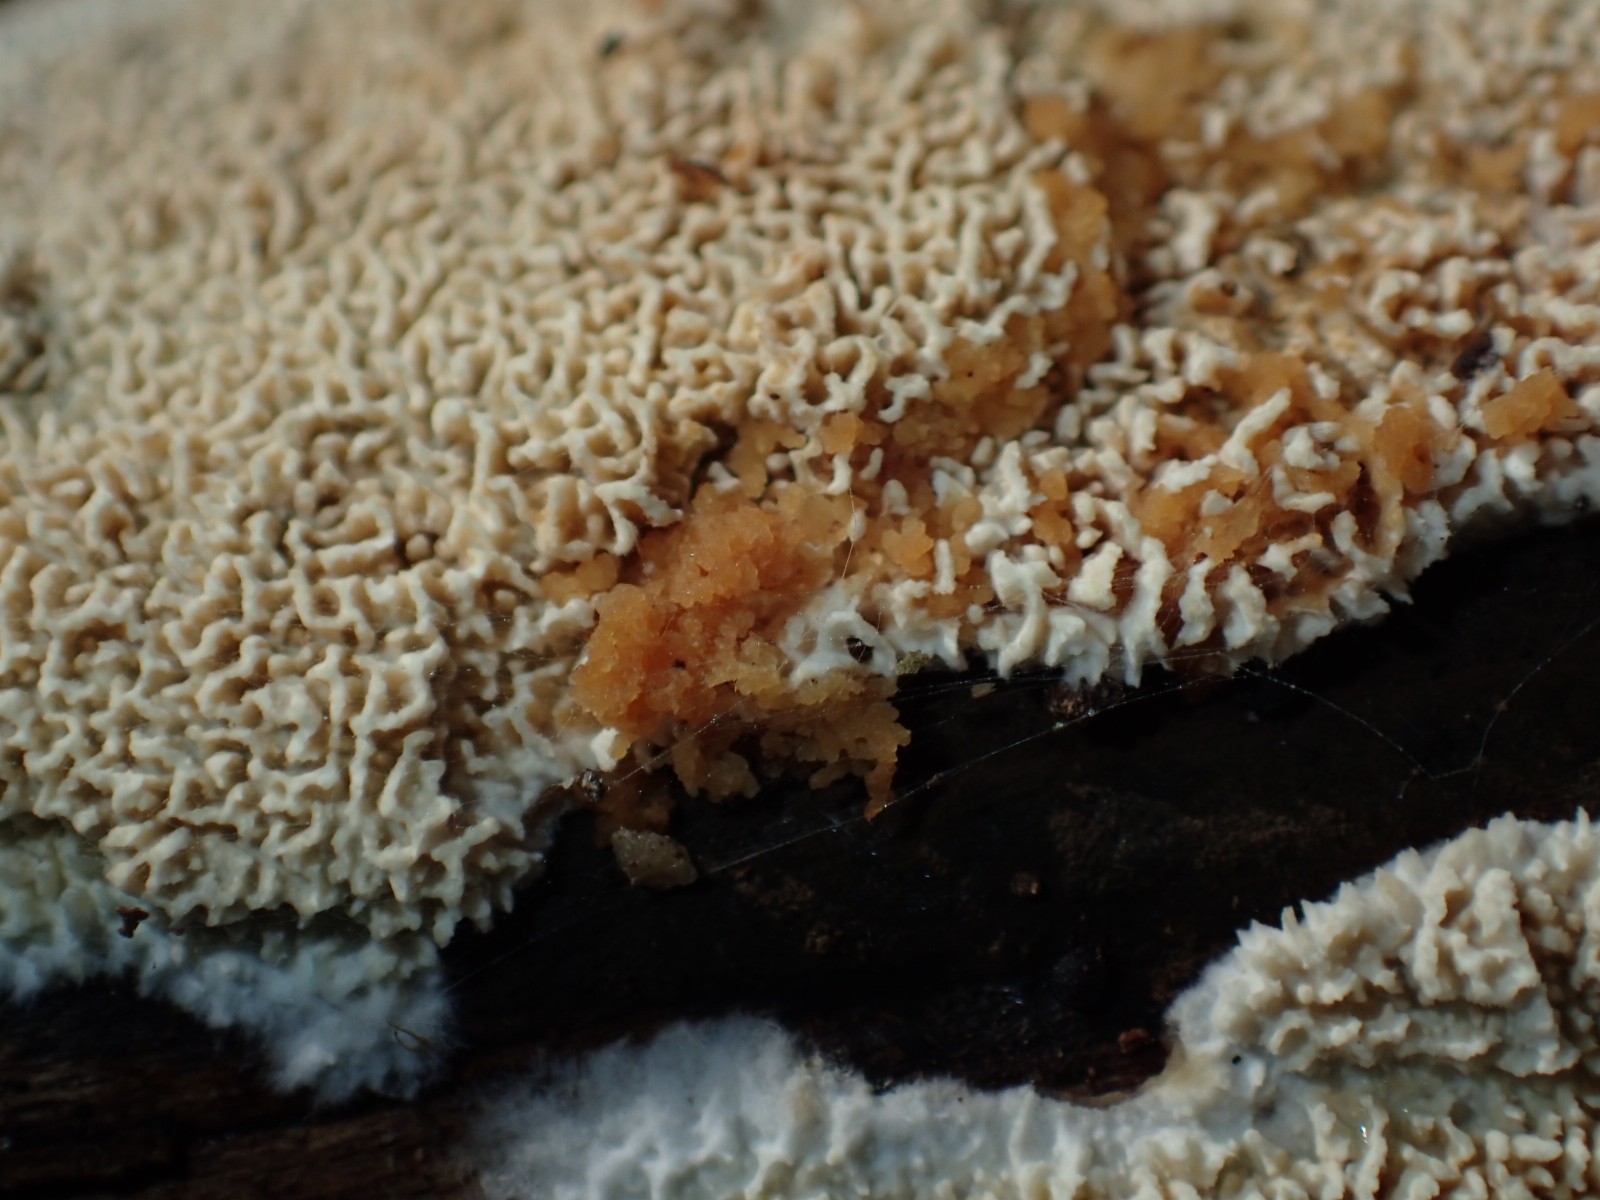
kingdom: Fungi
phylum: Basidiomycota
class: Agaricomycetes
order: Hymenochaetales
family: Schizoporaceae
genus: Xylodon
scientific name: Xylodon
